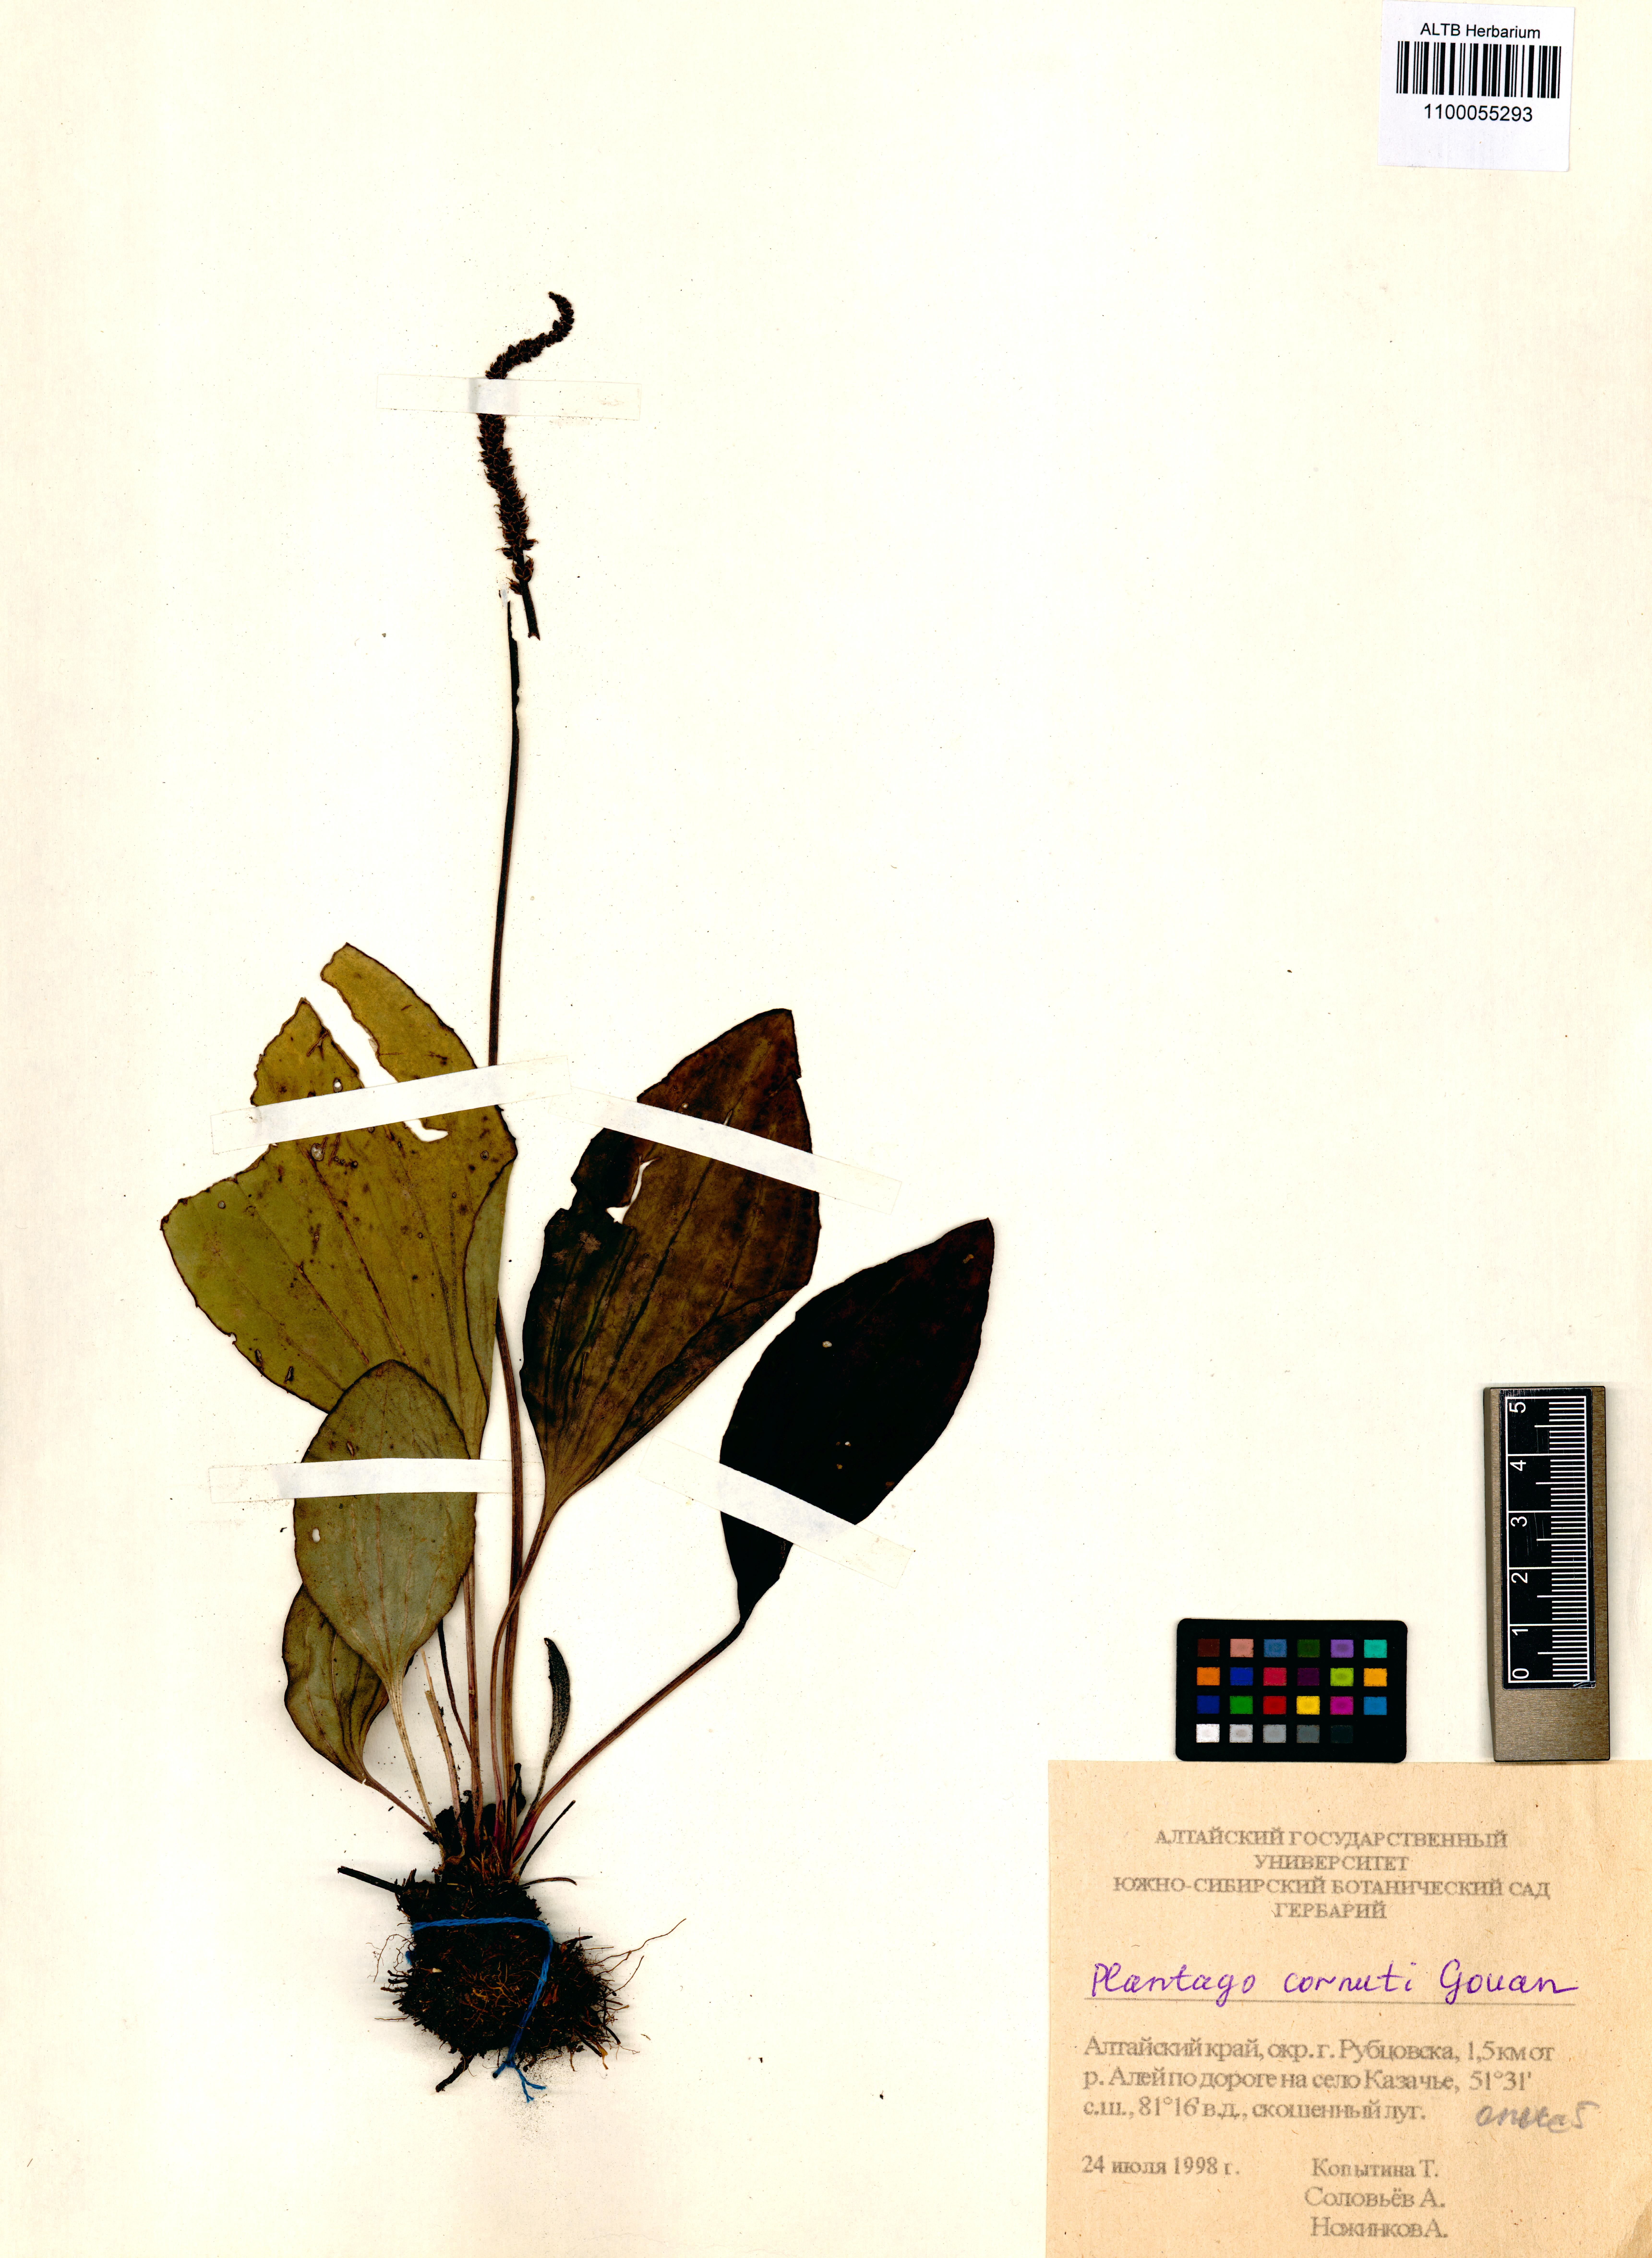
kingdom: Plantae
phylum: Tracheophyta
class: Magnoliopsida
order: Lamiales
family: Plantaginaceae
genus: Plantago
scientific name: Plantago cornuti
